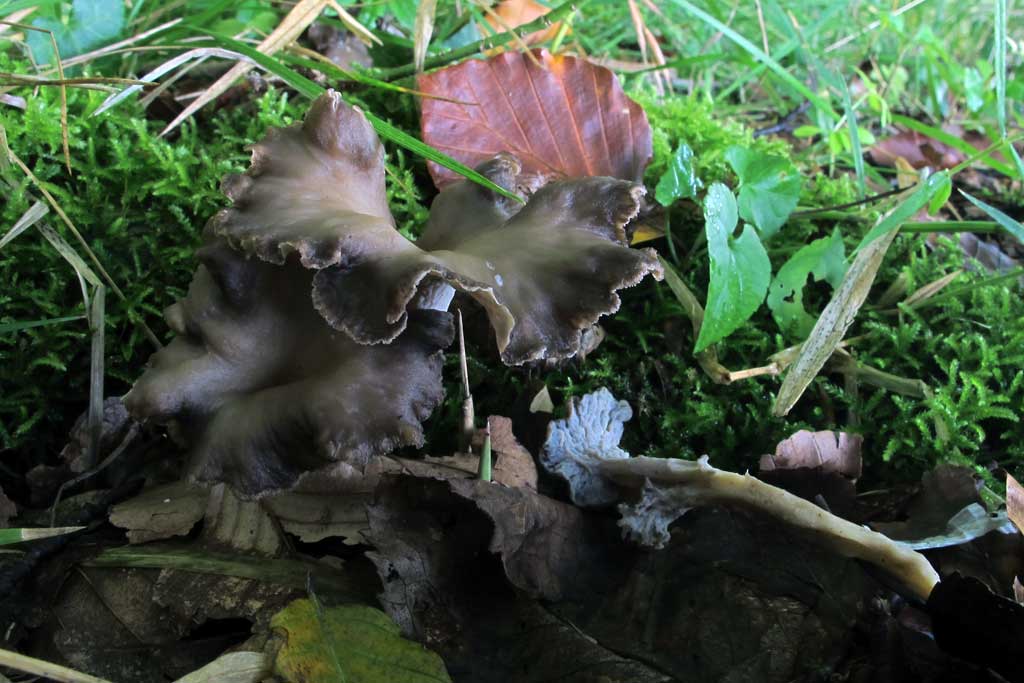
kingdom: Fungi
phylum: Basidiomycota
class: Agaricomycetes
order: Cantharellales
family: Hydnaceae
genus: Craterellus
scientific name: Craterellus undulatus
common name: liden kantarel
